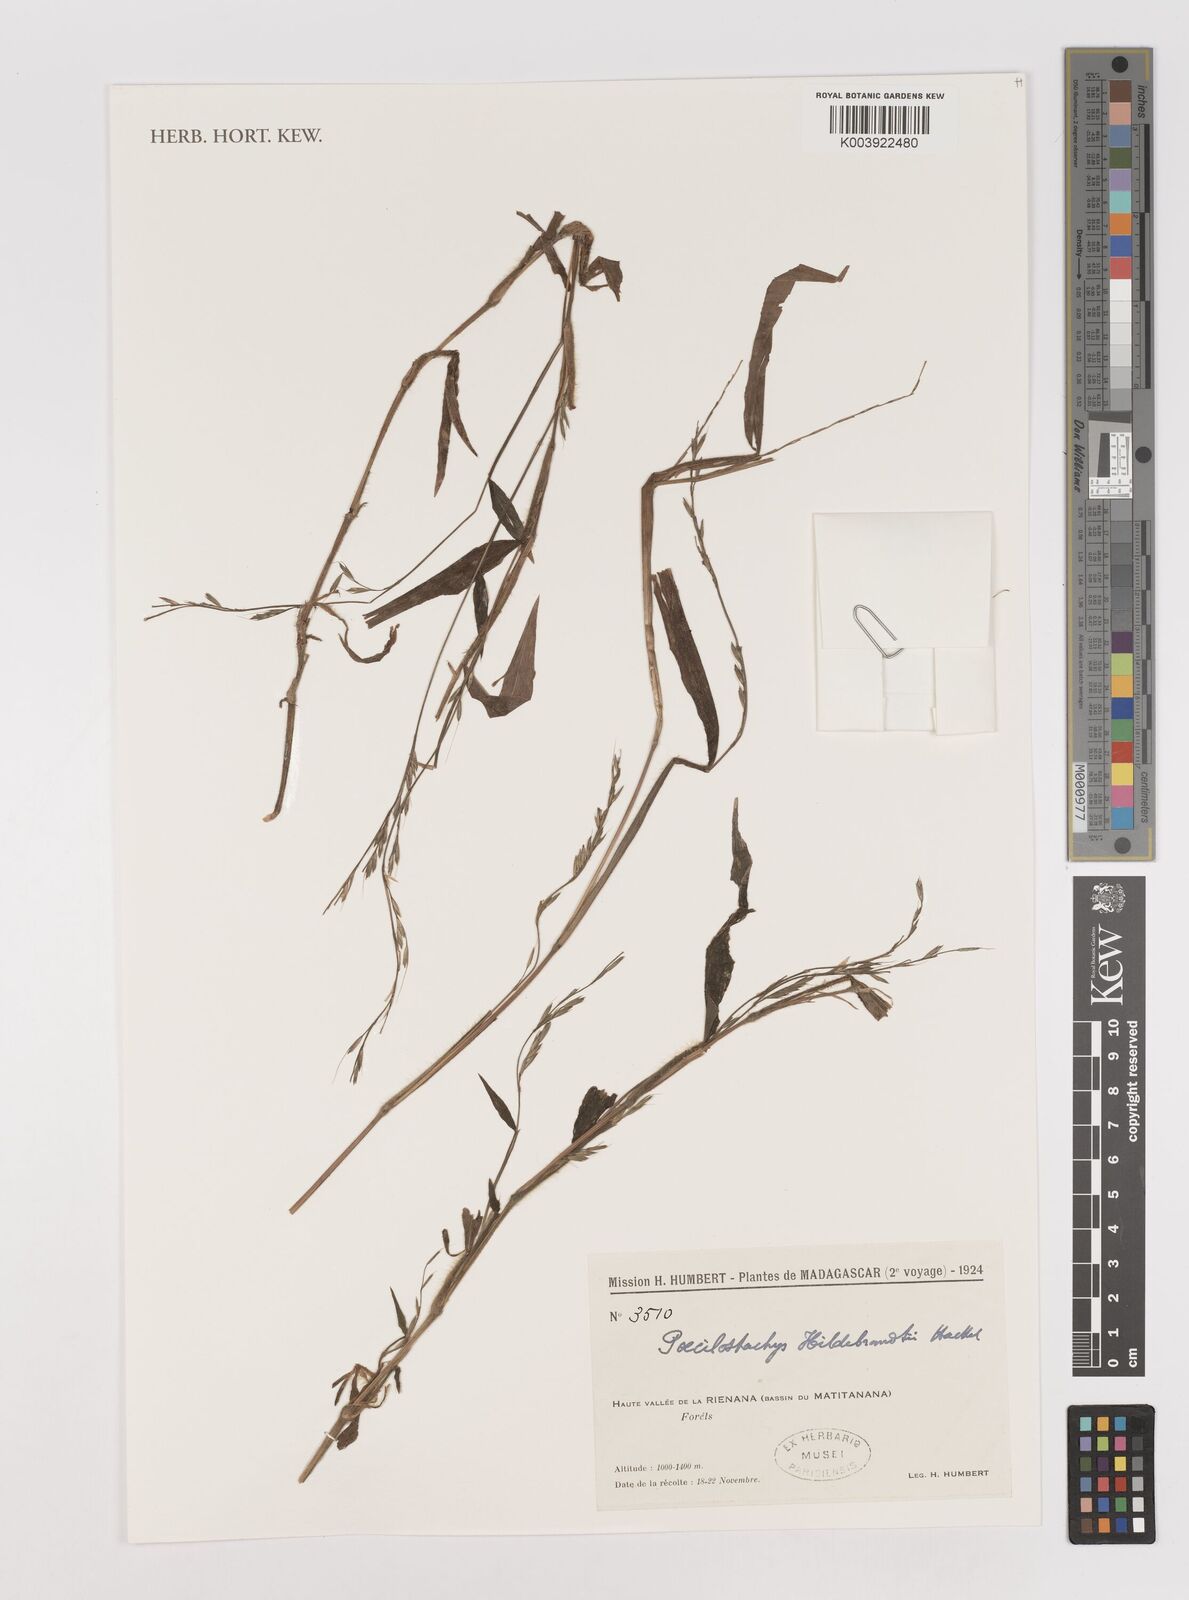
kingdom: Plantae
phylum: Tracheophyta
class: Liliopsida
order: Poales
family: Poaceae
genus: Poecilostachys
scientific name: Poecilostachys hildebrandtii
